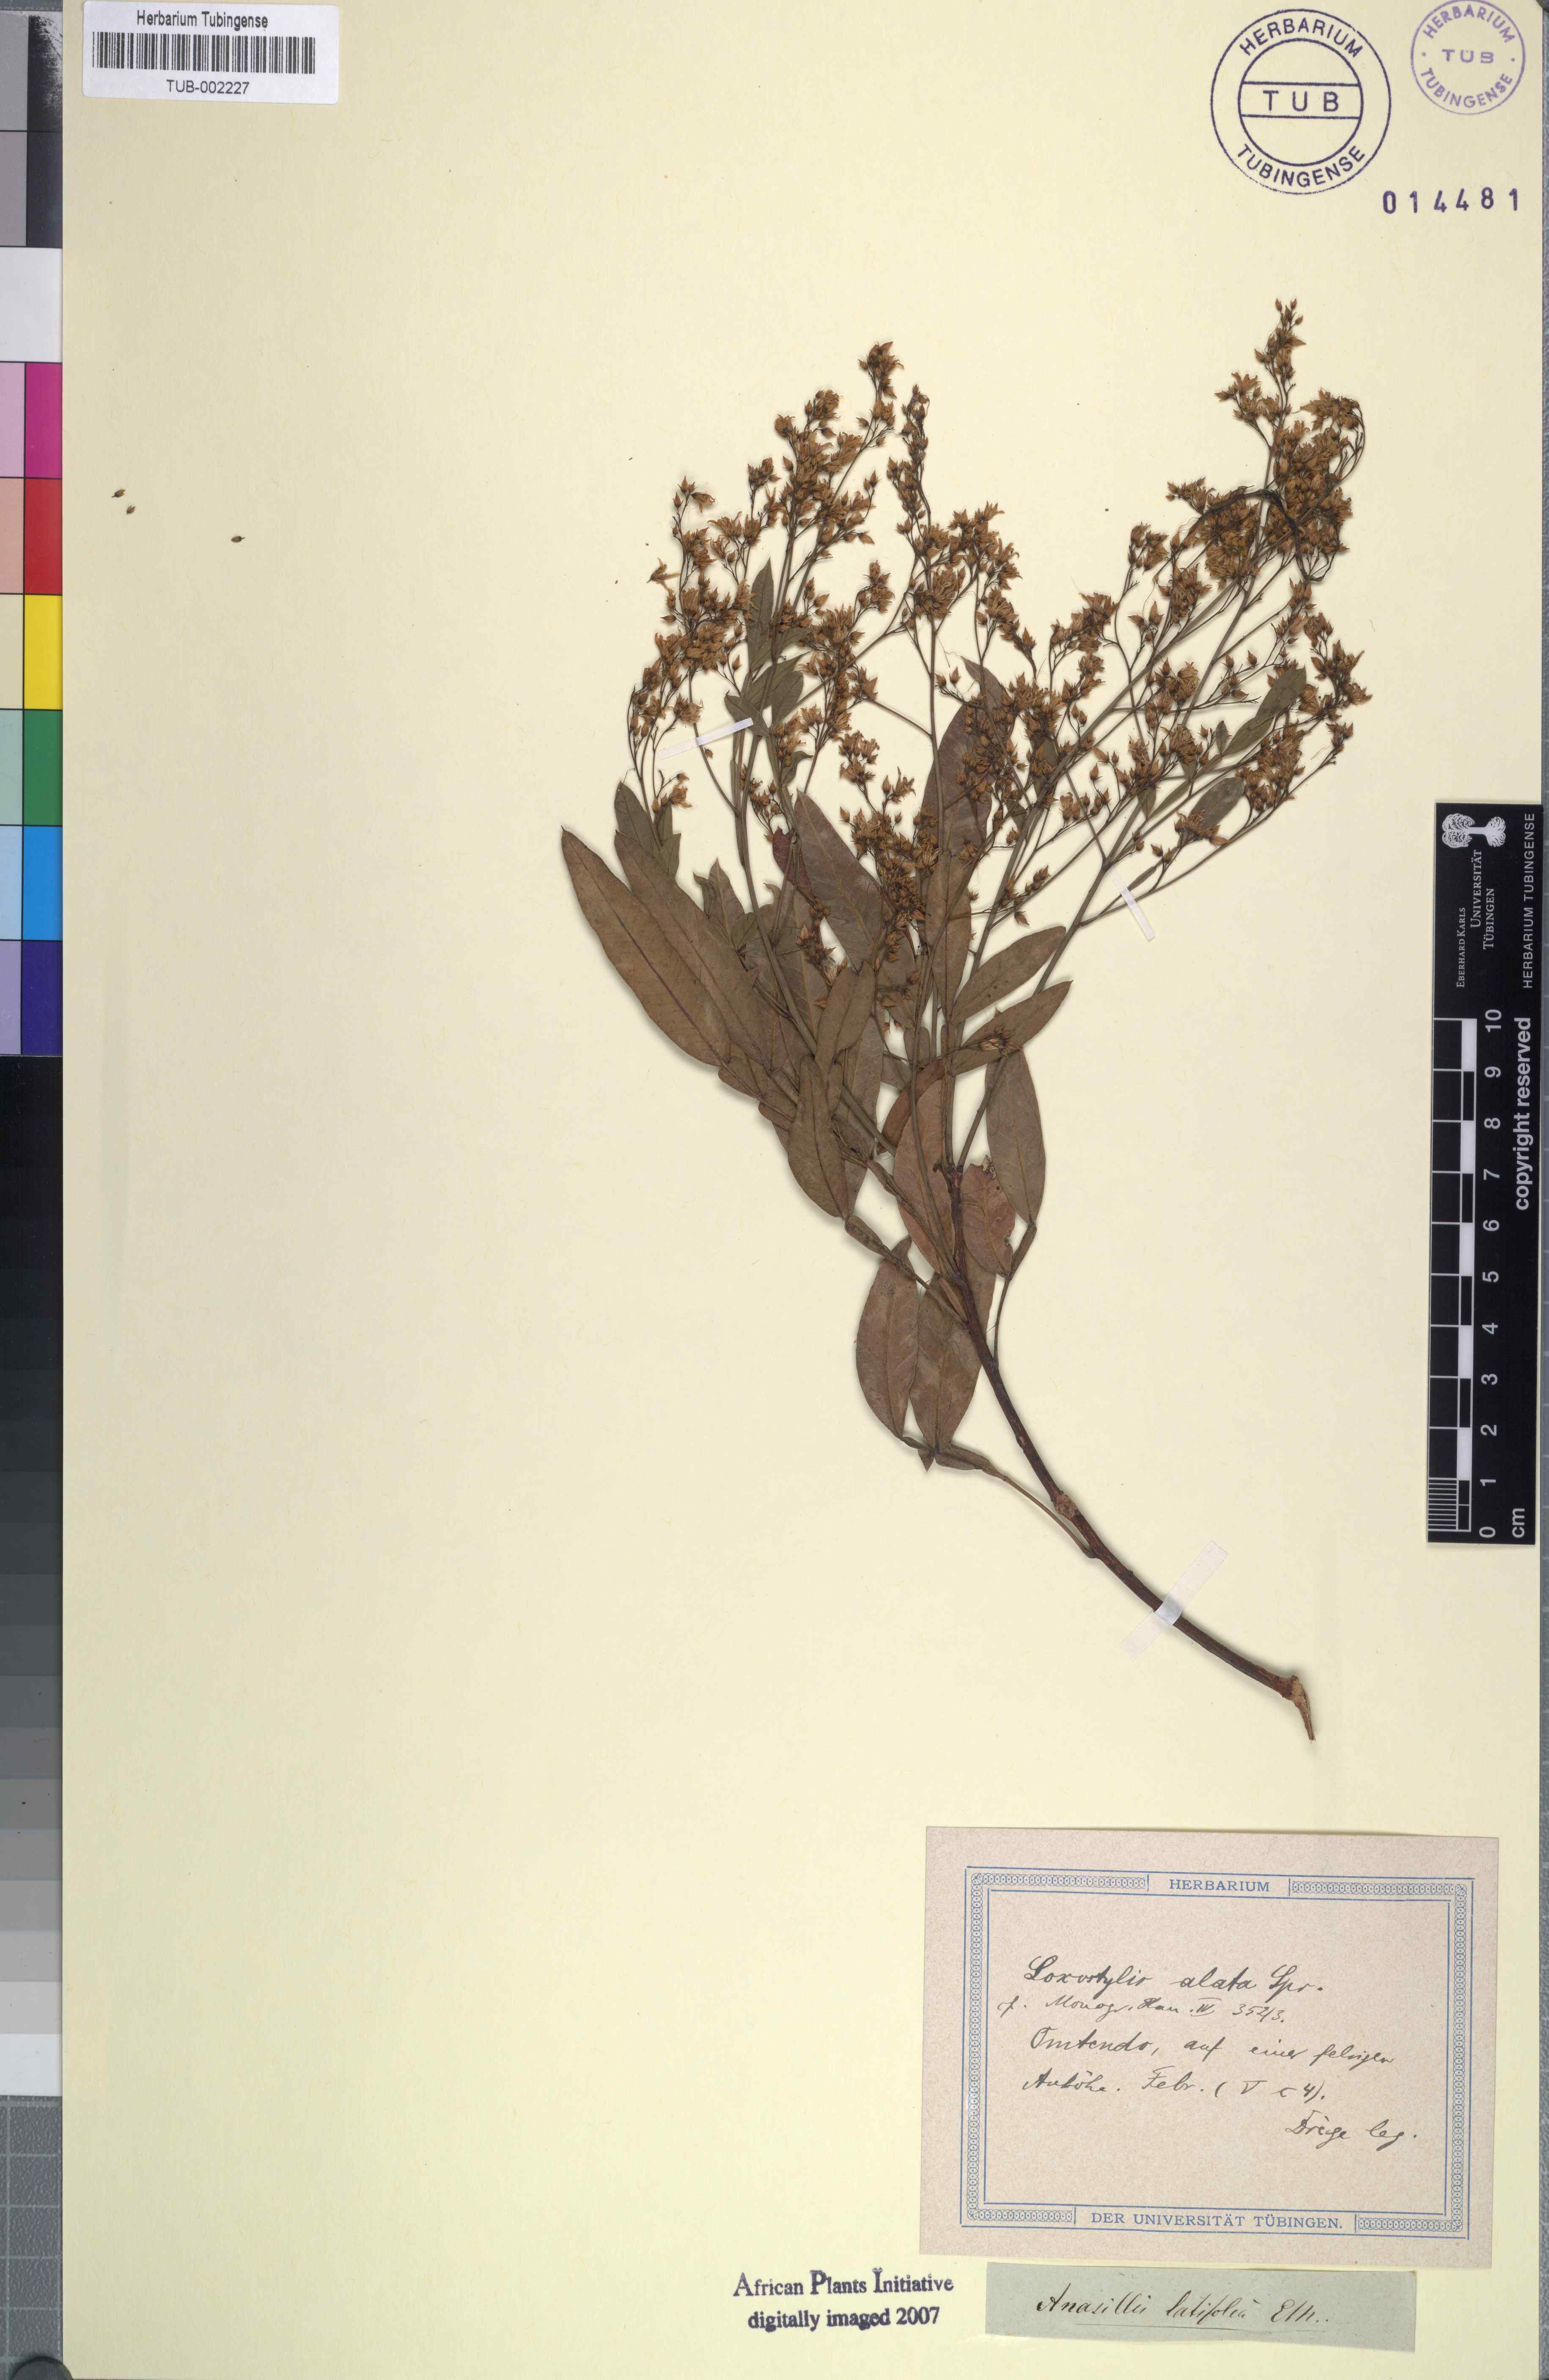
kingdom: Plantae
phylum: Tracheophyta
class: Magnoliopsida
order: Sapindales
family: Anacardiaceae
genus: Loxostylis
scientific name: Loxostylis alata
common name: Wild peppertree
